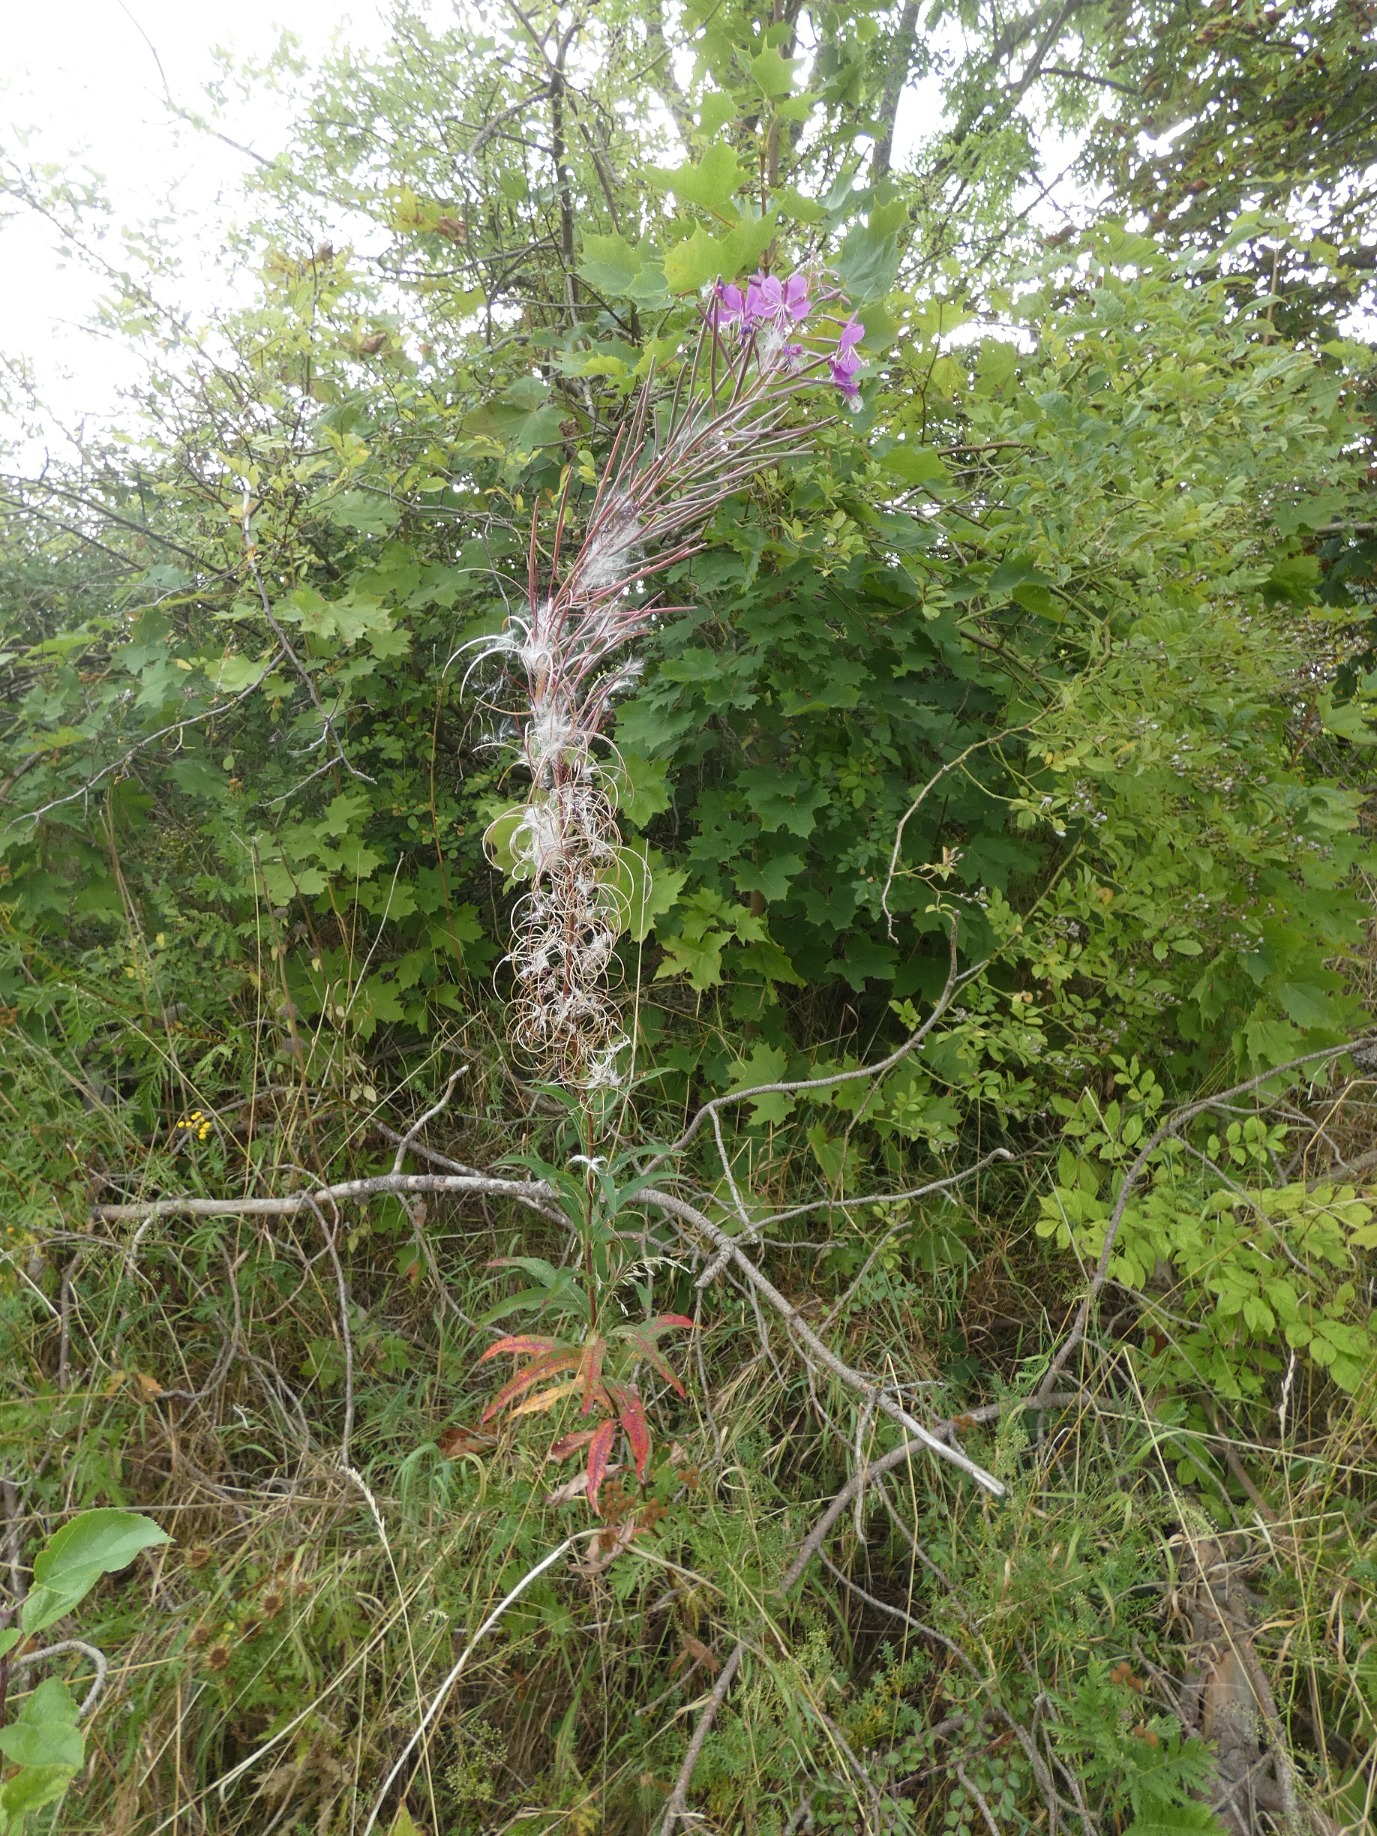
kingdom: Plantae
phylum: Tracheophyta
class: Magnoliopsida
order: Myrtales
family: Onagraceae
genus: Chamaenerion
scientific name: Chamaenerion angustifolium
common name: Gederams
